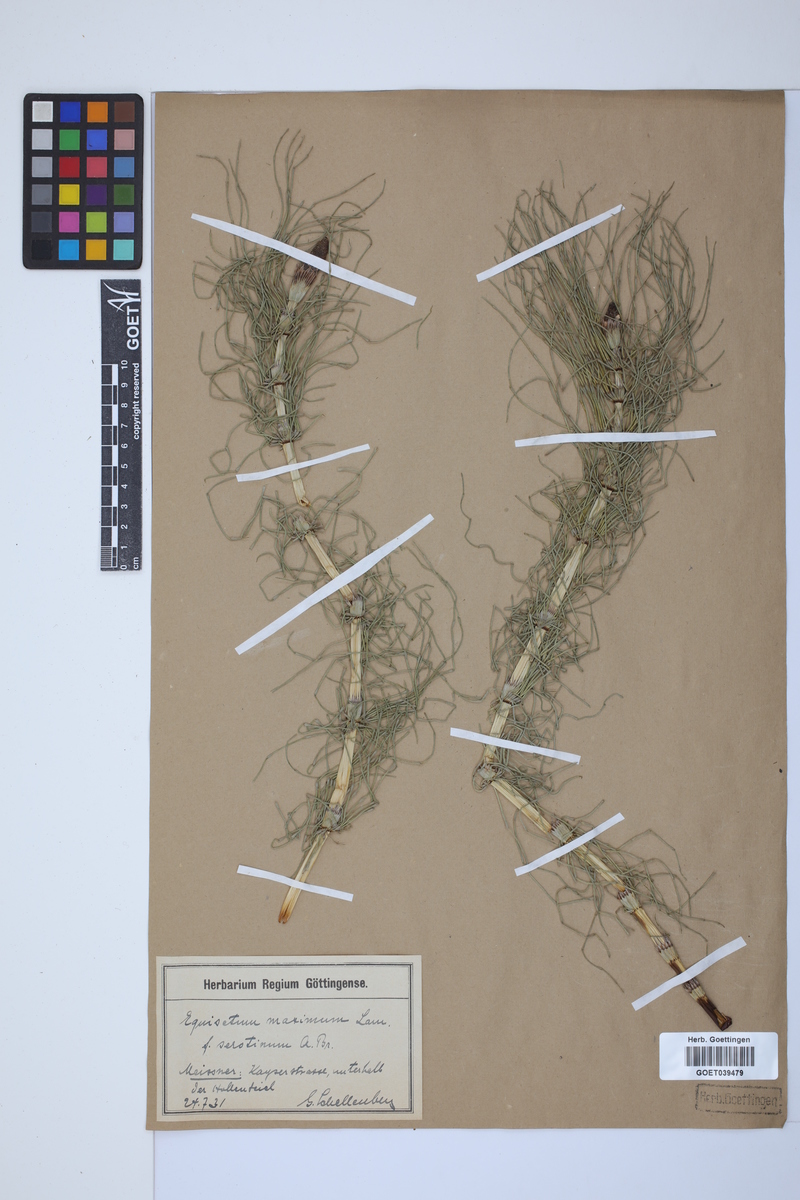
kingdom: Plantae
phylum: Tracheophyta
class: Polypodiopsida
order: Equisetales
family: Equisetaceae
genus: Equisetum
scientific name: Equisetum telmateia
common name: Great horsetail
